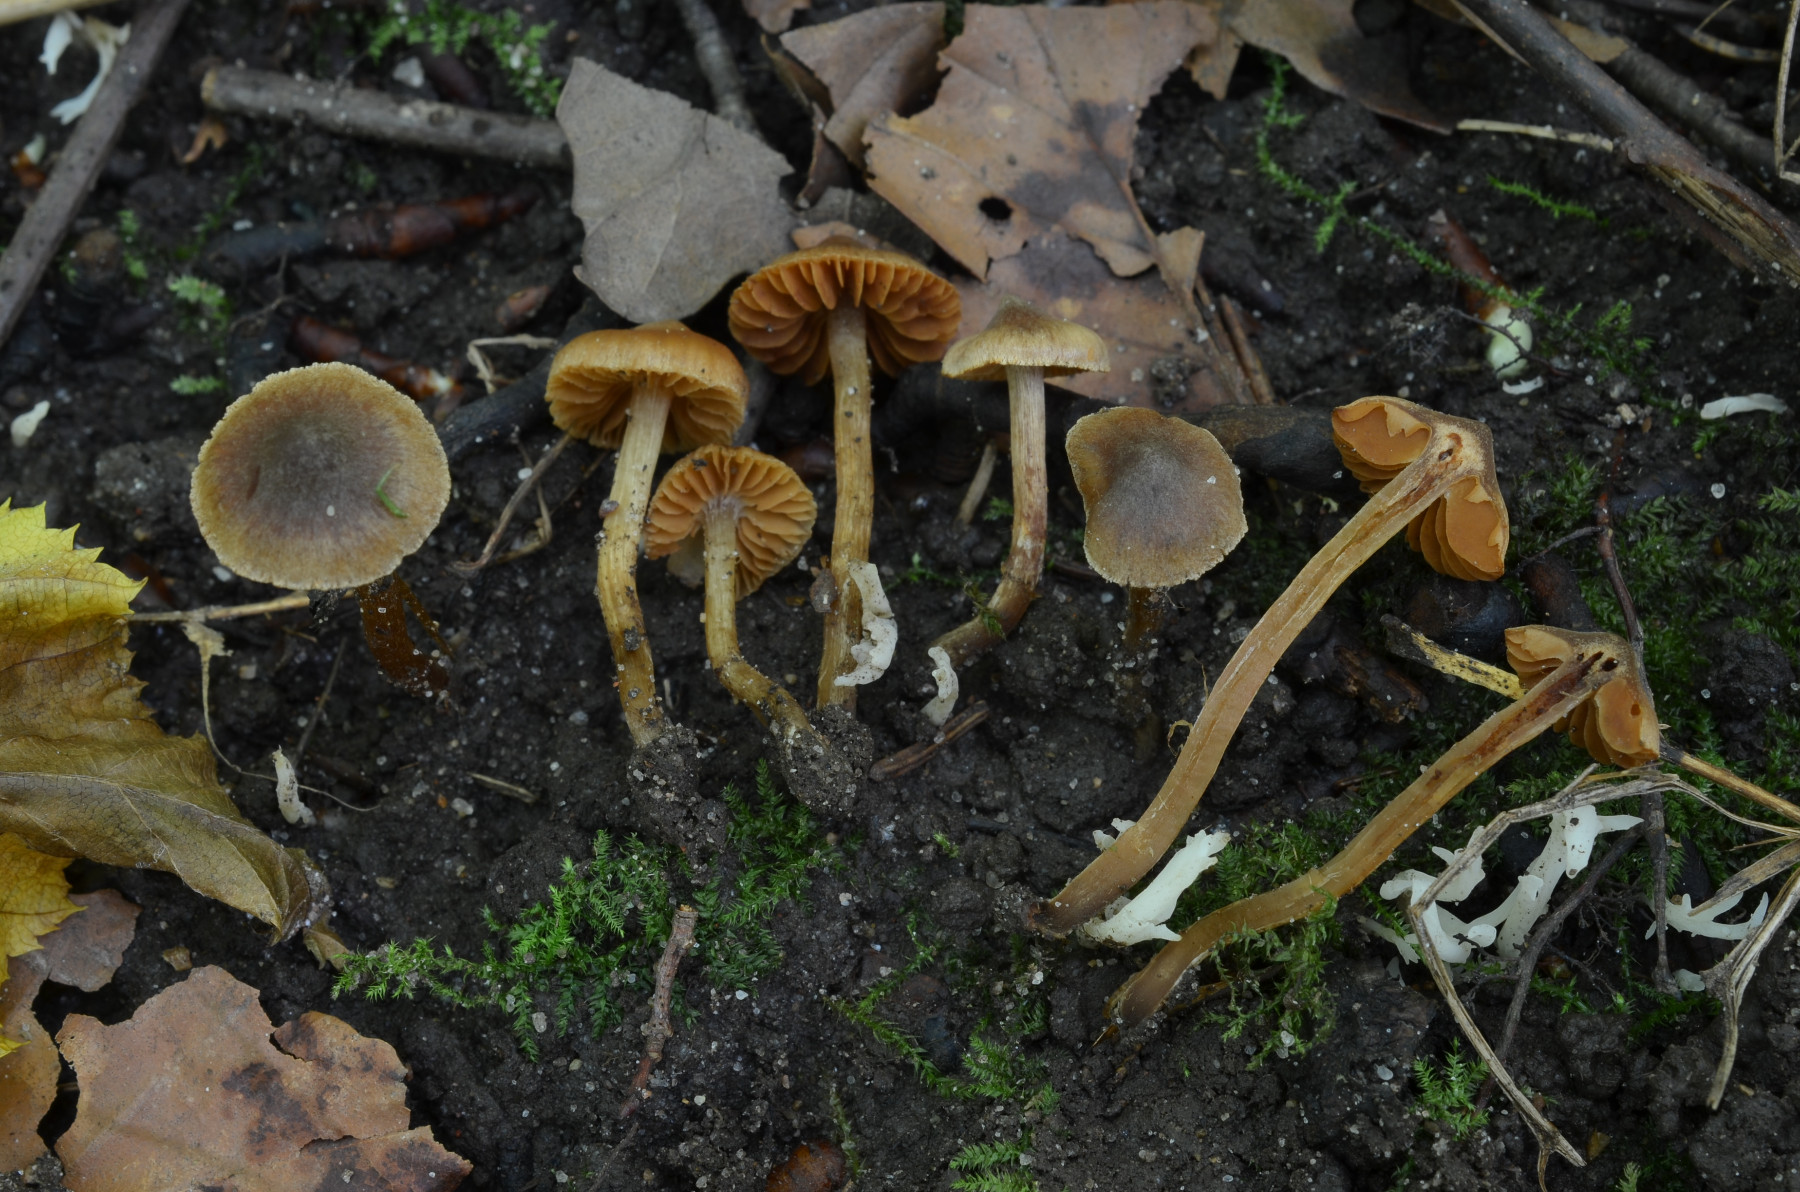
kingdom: Fungi
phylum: Basidiomycota
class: Agaricomycetes
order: Agaricales
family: Cortinariaceae
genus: Cortinarius
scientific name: Cortinarius megacystidiosus
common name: lavbæltet slørhat
